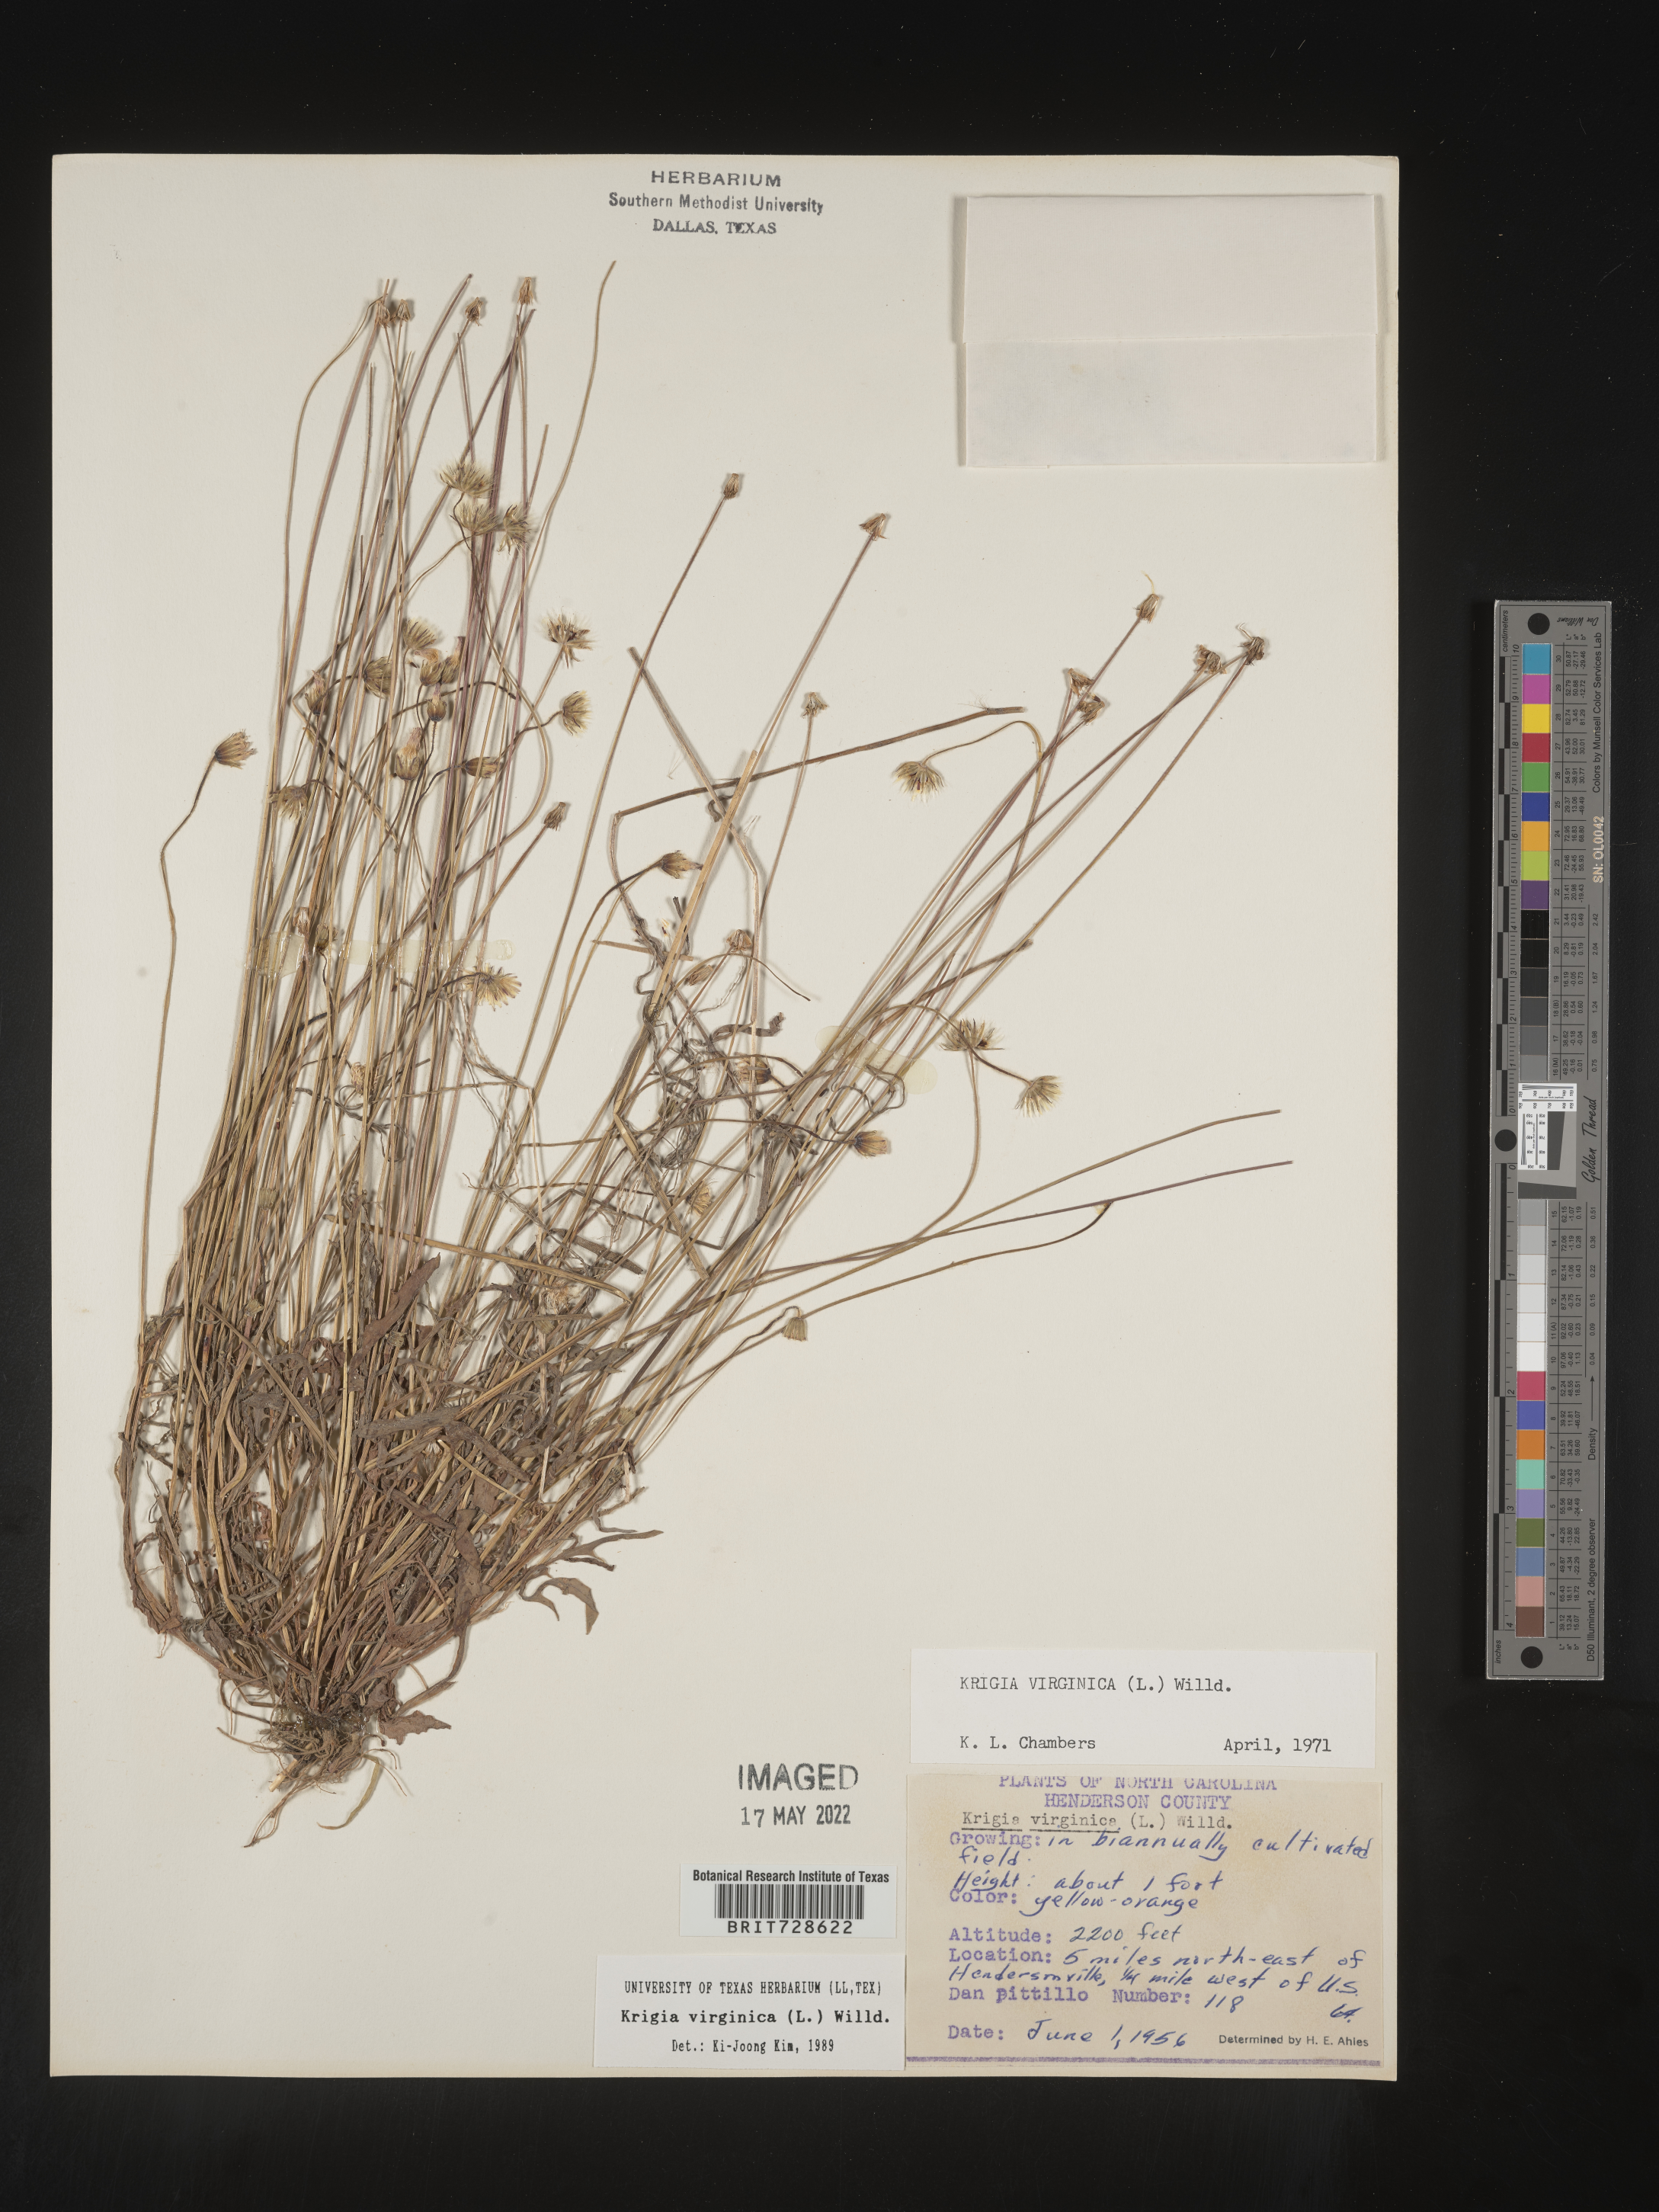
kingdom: Plantae
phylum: Tracheophyta
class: Magnoliopsida
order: Asterales
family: Asteraceae
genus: Krigia
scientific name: Krigia virginica
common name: Virginia dwarf-dandelion
